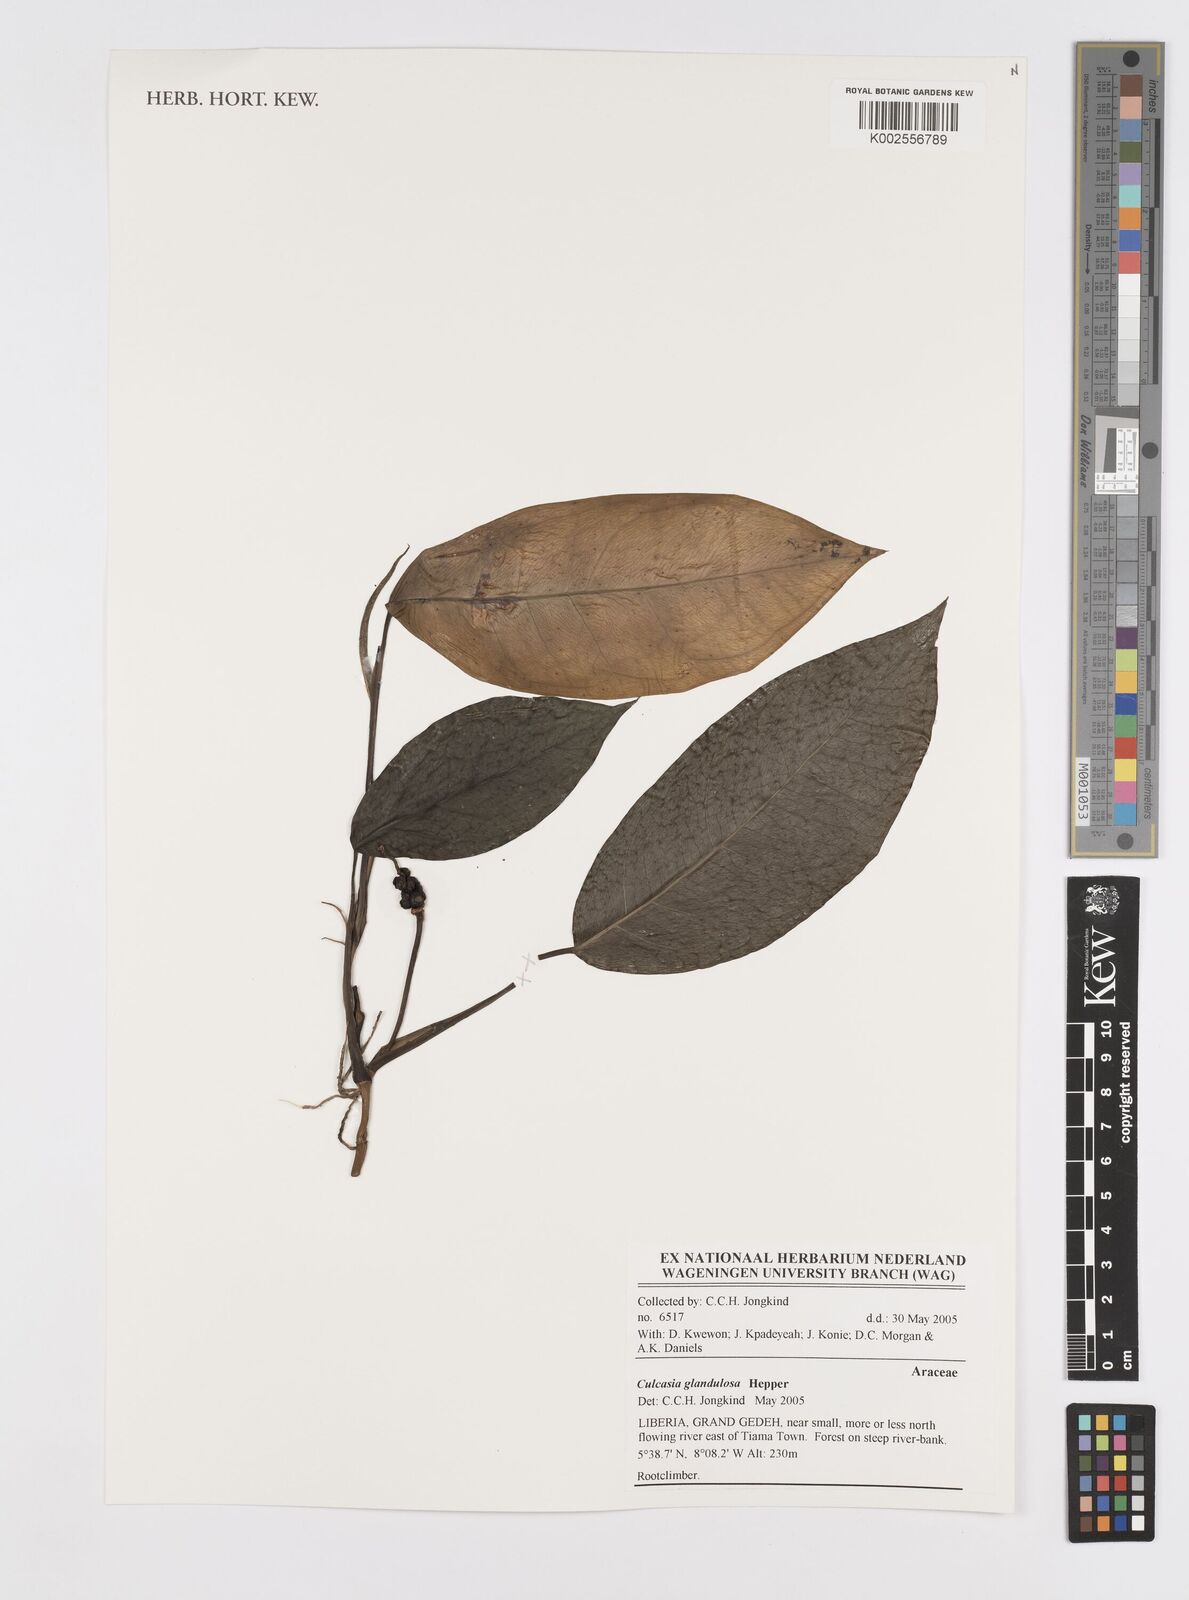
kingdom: Plantae
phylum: Tracheophyta
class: Liliopsida
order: Alismatales
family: Araceae
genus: Culcasia
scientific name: Culcasia glandulosa
